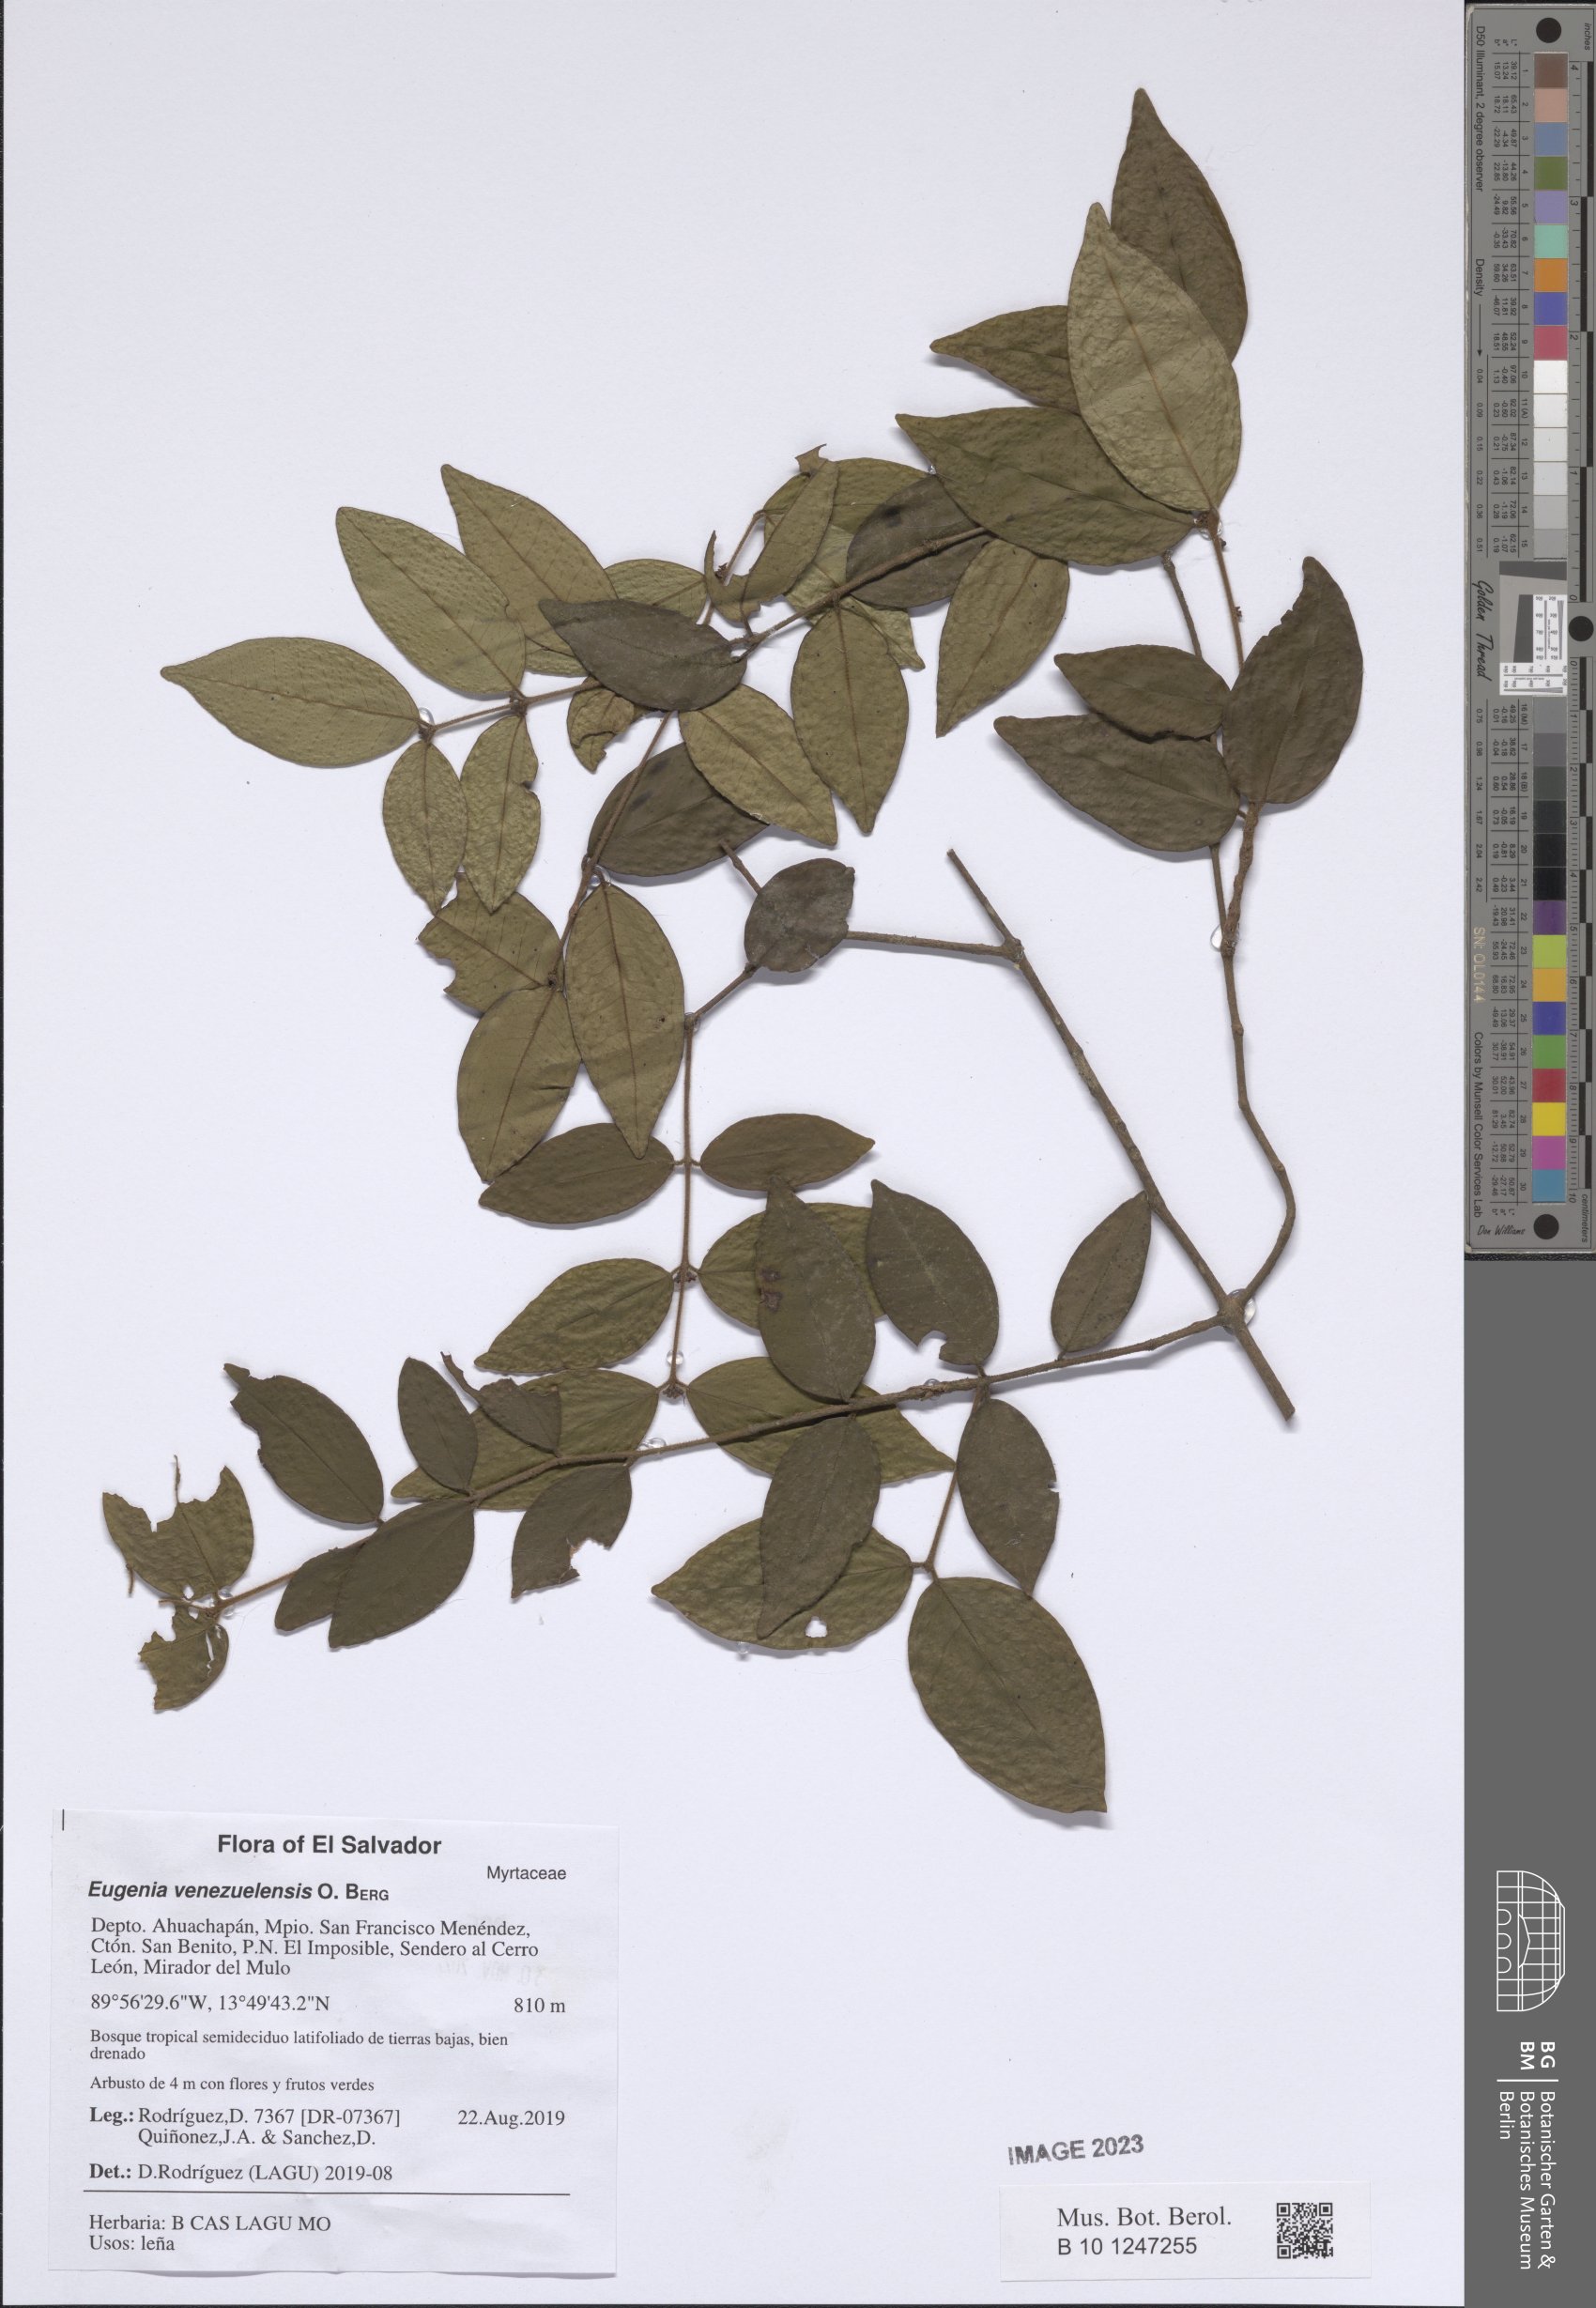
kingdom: Plantae
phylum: Tracheophyta
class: Magnoliopsida
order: Myrtales
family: Myrtaceae
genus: Eugenia
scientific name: Eugenia venezuelensis
